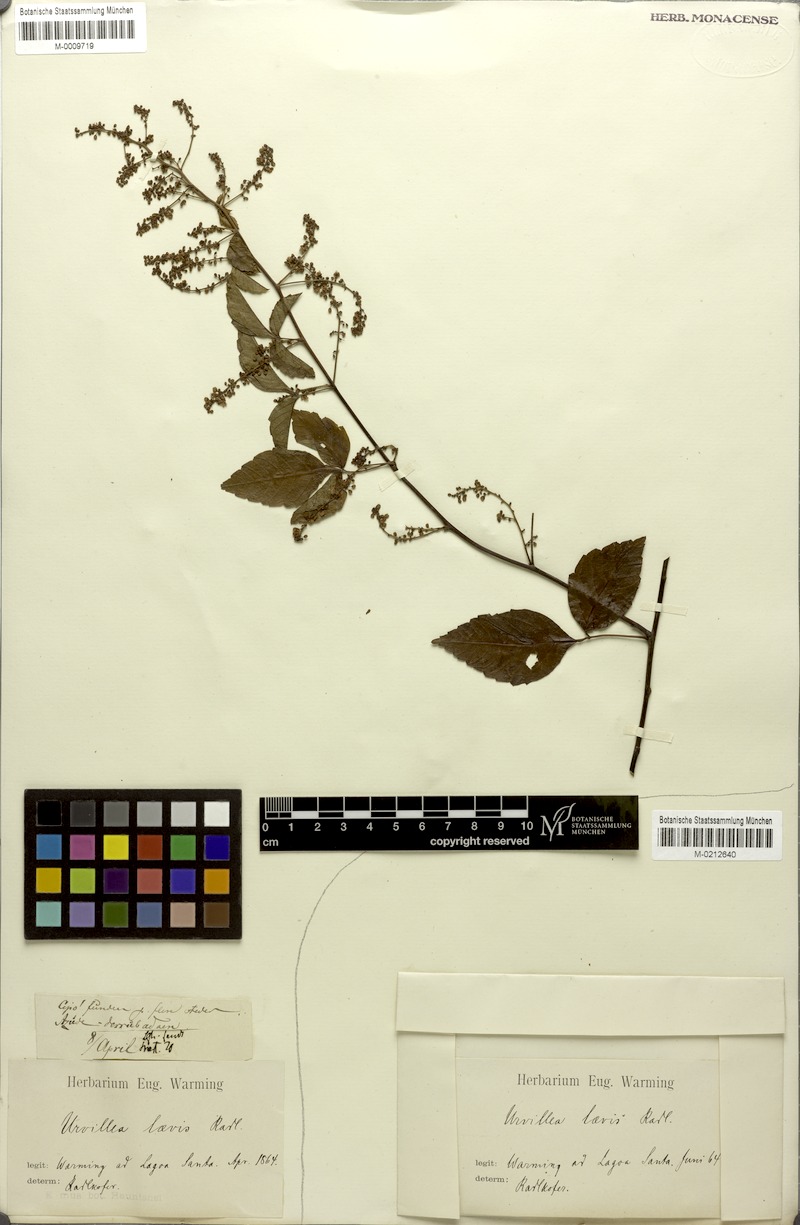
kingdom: Plantae
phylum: Tracheophyta
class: Magnoliopsida
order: Sapindales
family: Sapindaceae
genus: Urvillea
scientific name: Urvillea laevis
